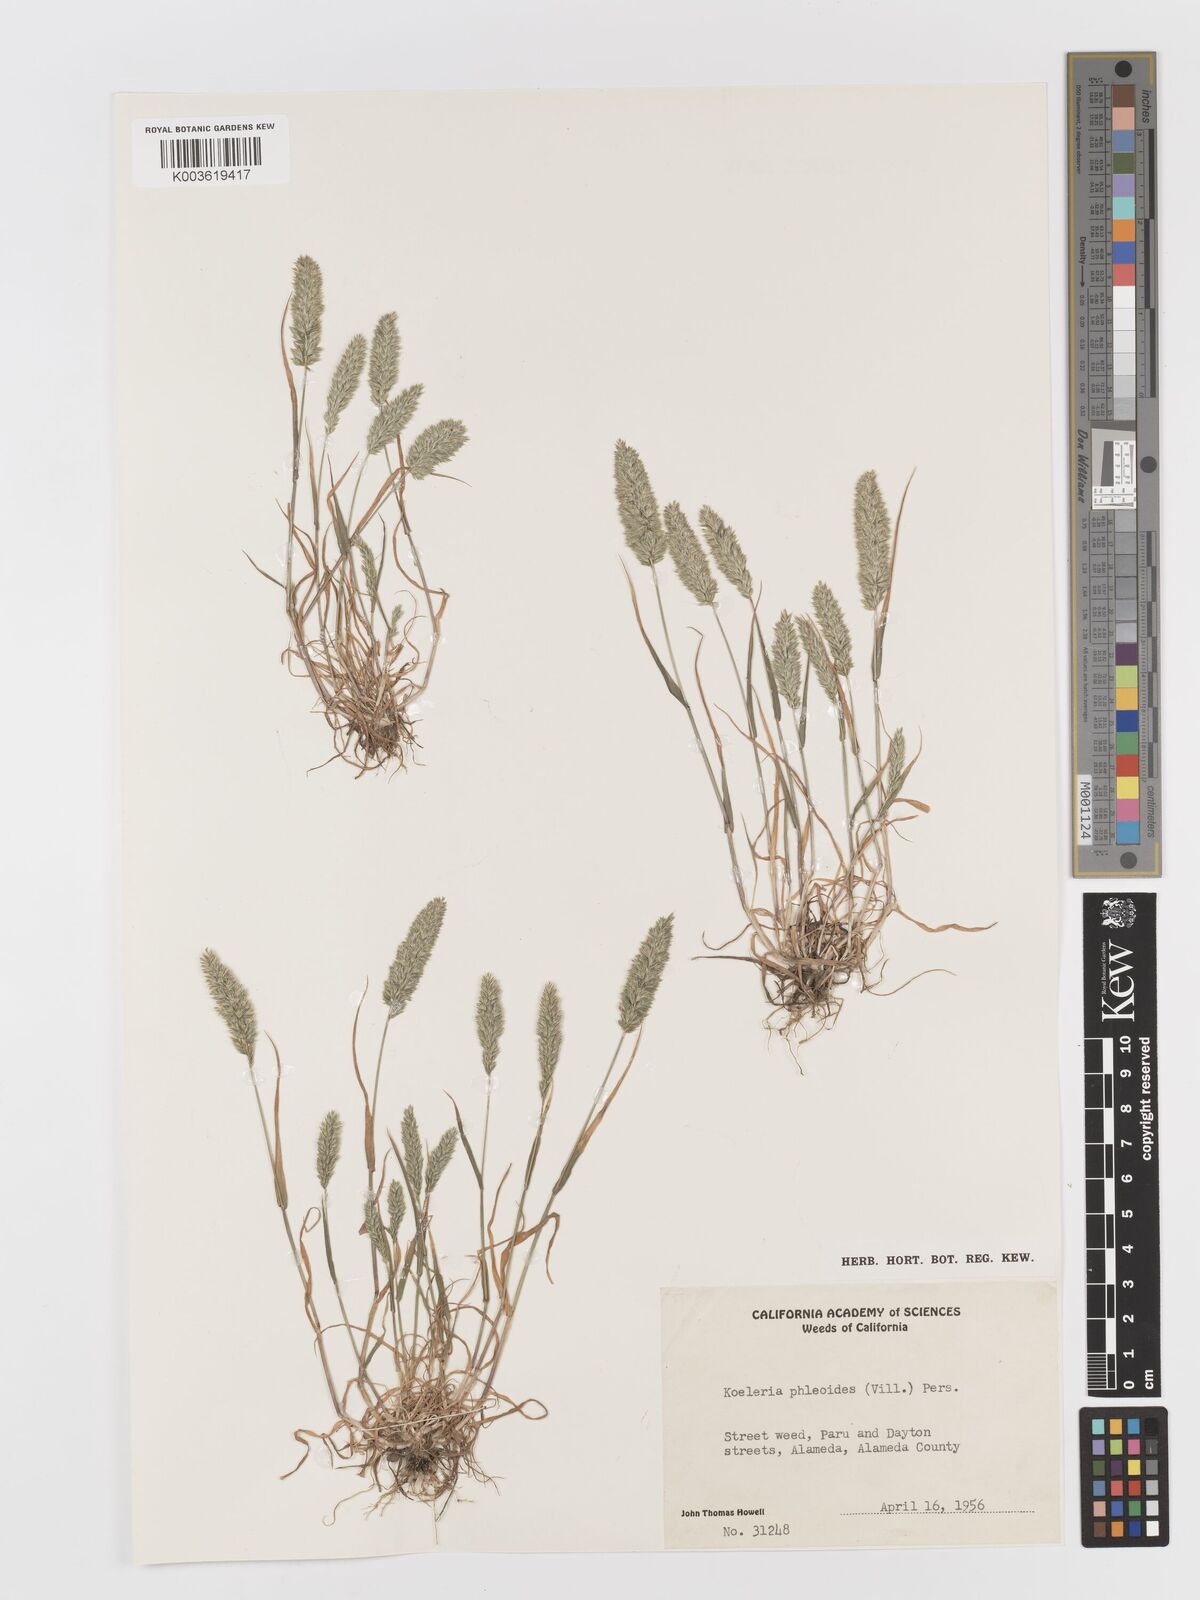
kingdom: Plantae
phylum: Tracheophyta
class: Liliopsida
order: Poales
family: Poaceae
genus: Rostraria
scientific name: Rostraria cristata
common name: Mediterranean hair-grass
